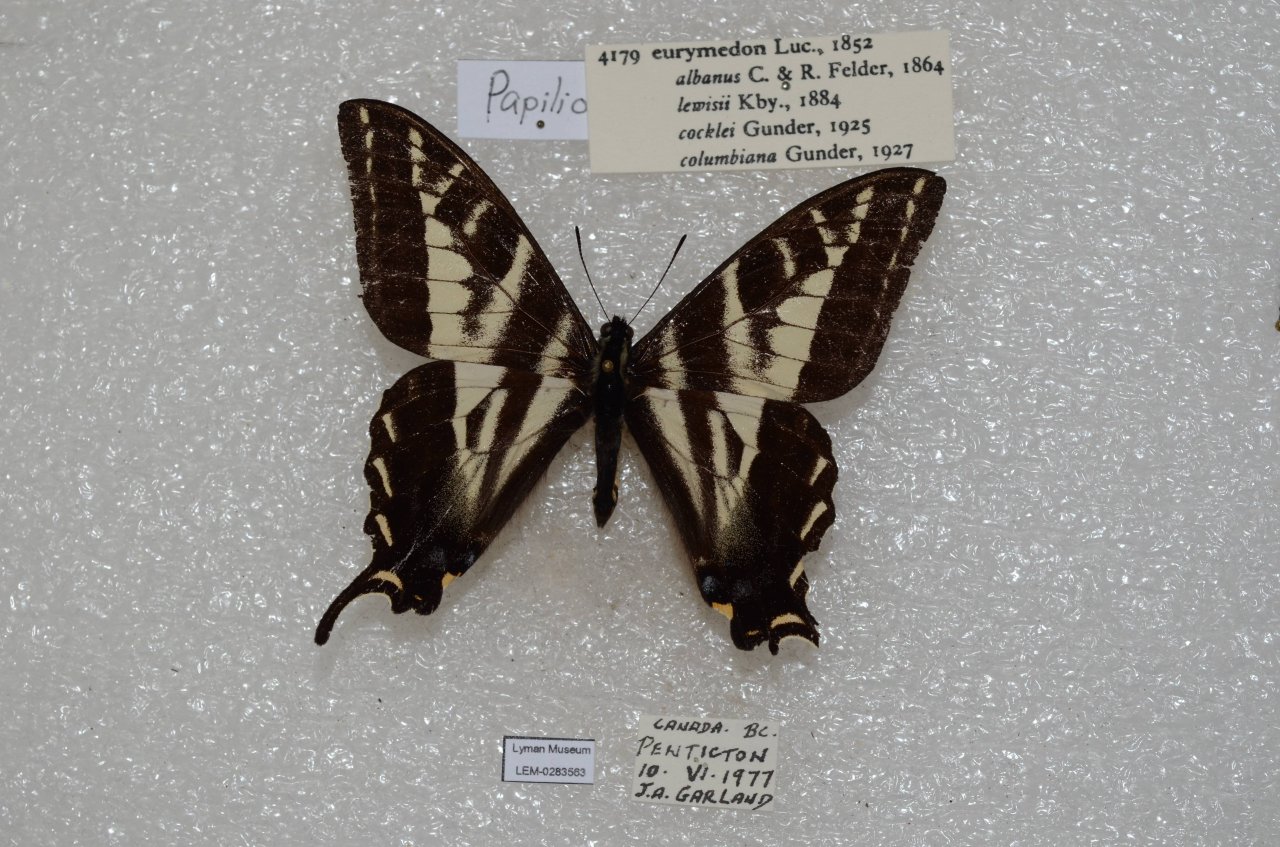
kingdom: Animalia
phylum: Arthropoda
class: Insecta
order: Lepidoptera
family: Papilionidae
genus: Pterourus
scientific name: Pterourus eurymedon
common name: Pale Swallowtail
